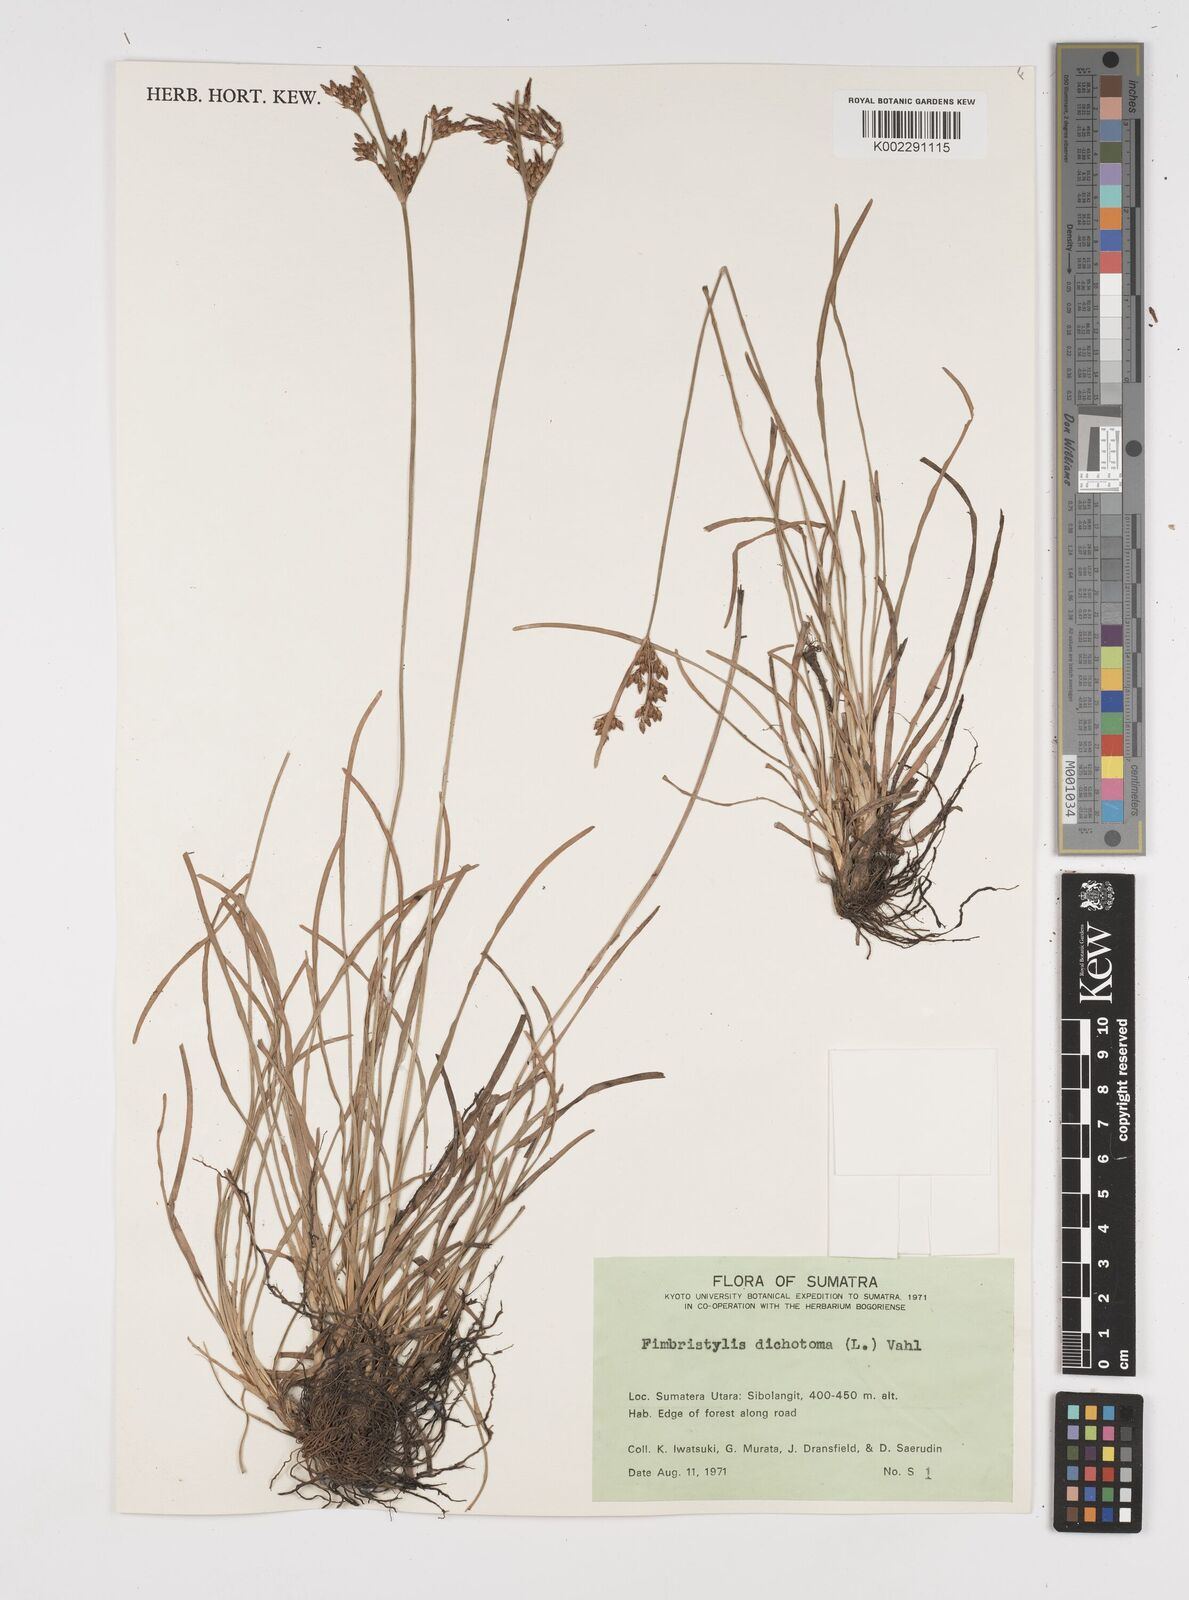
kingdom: Plantae
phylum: Tracheophyta
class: Liliopsida
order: Poales
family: Cyperaceae
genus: Fimbristylis
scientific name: Fimbristylis dichotoma
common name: Forked fimbry
